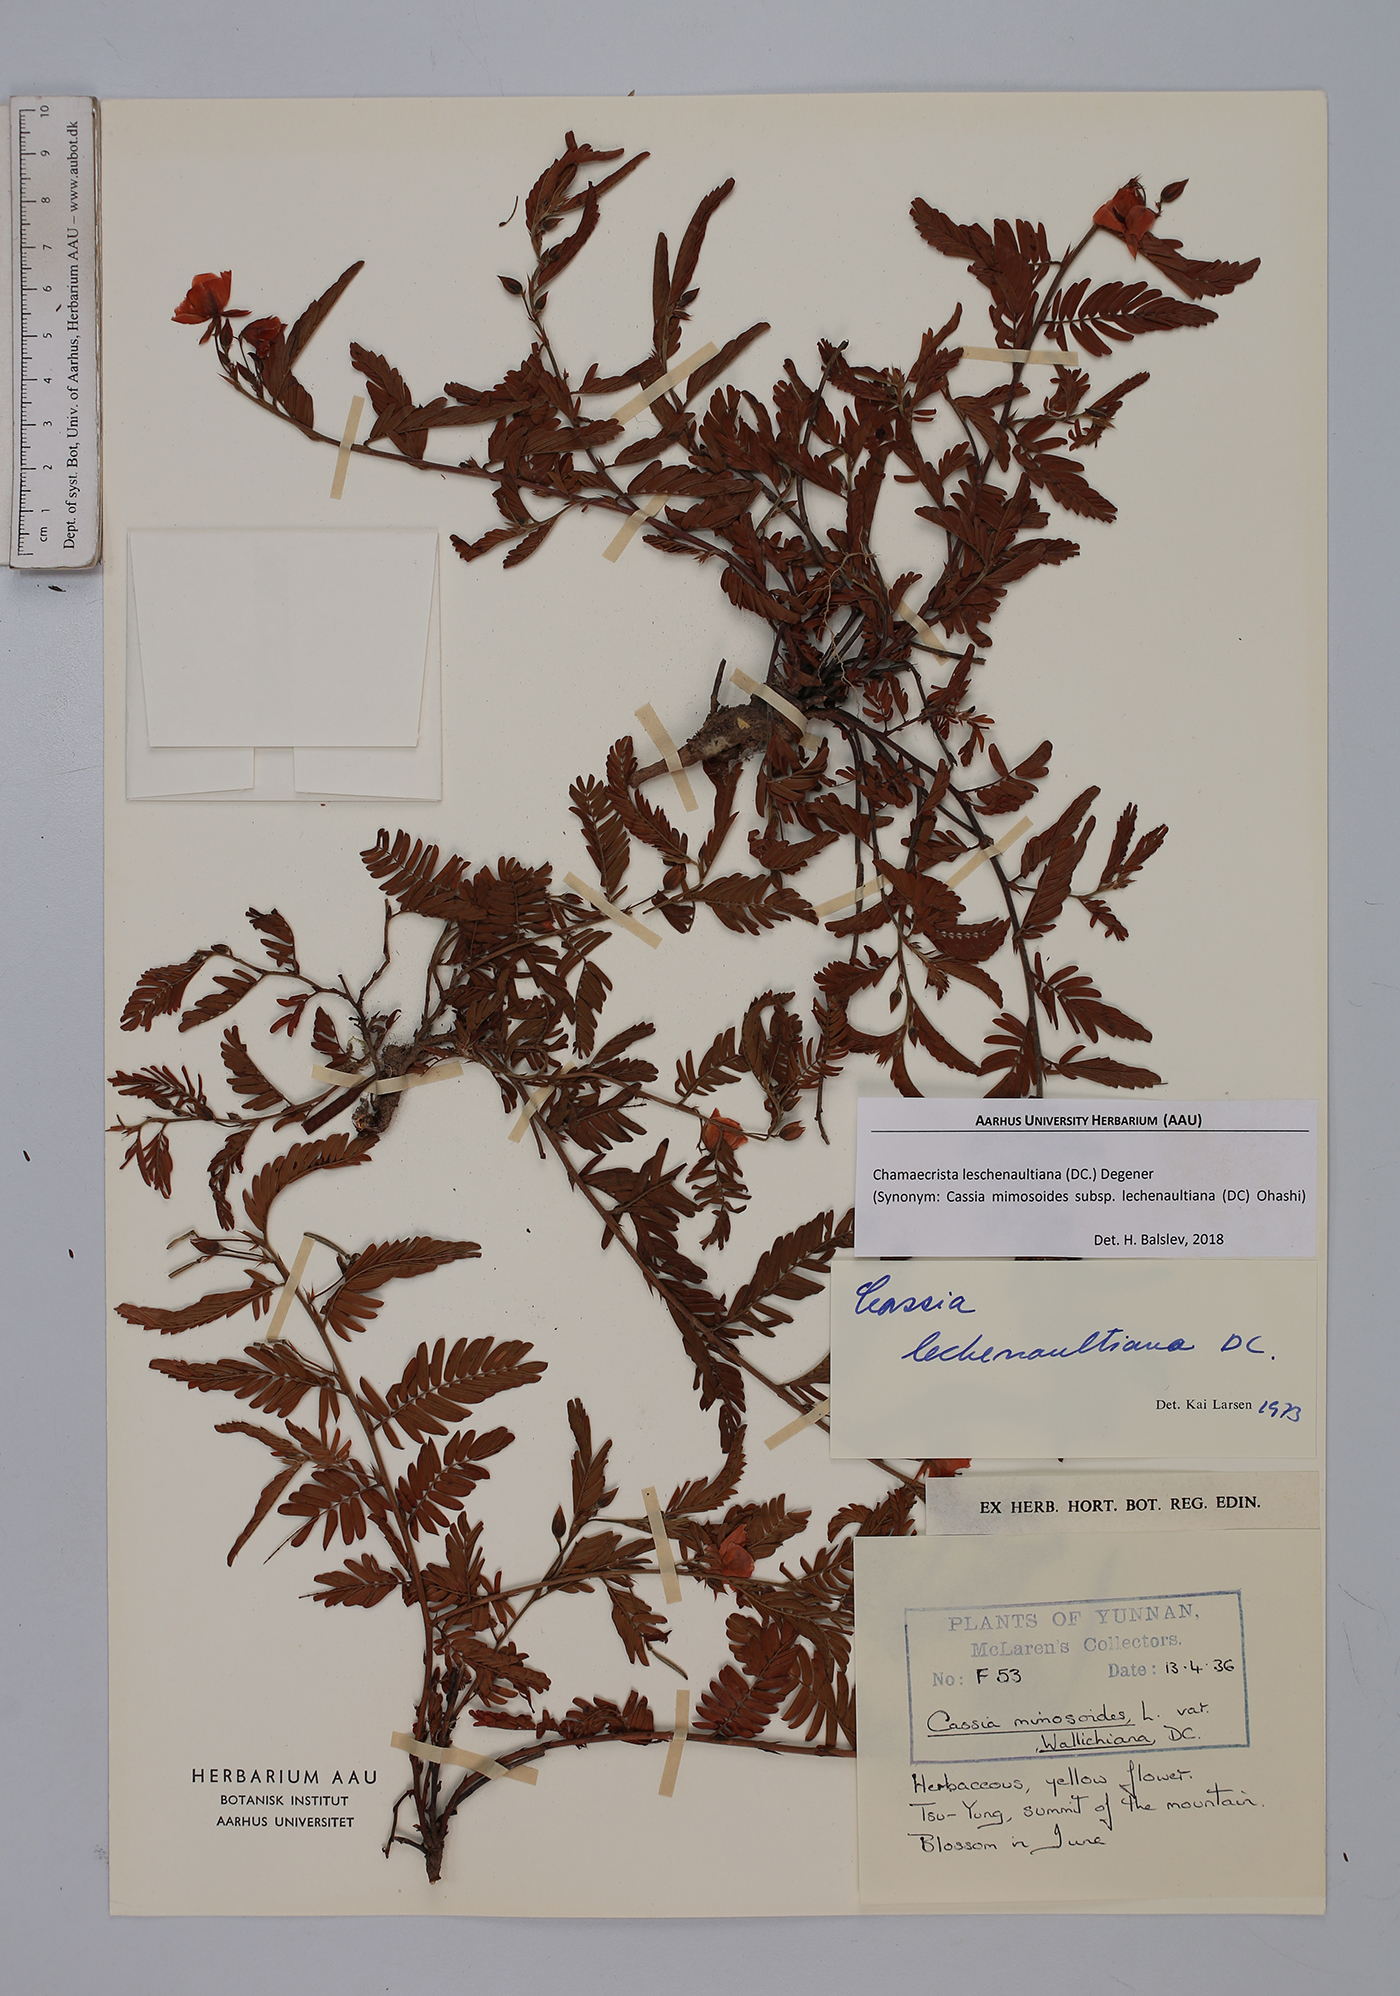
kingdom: Plantae
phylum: Tracheophyta
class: Magnoliopsida
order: Fabales
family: Fabaceae
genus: Chamaecrista
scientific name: Chamaecrista nictitans
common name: Sensitive cassia
